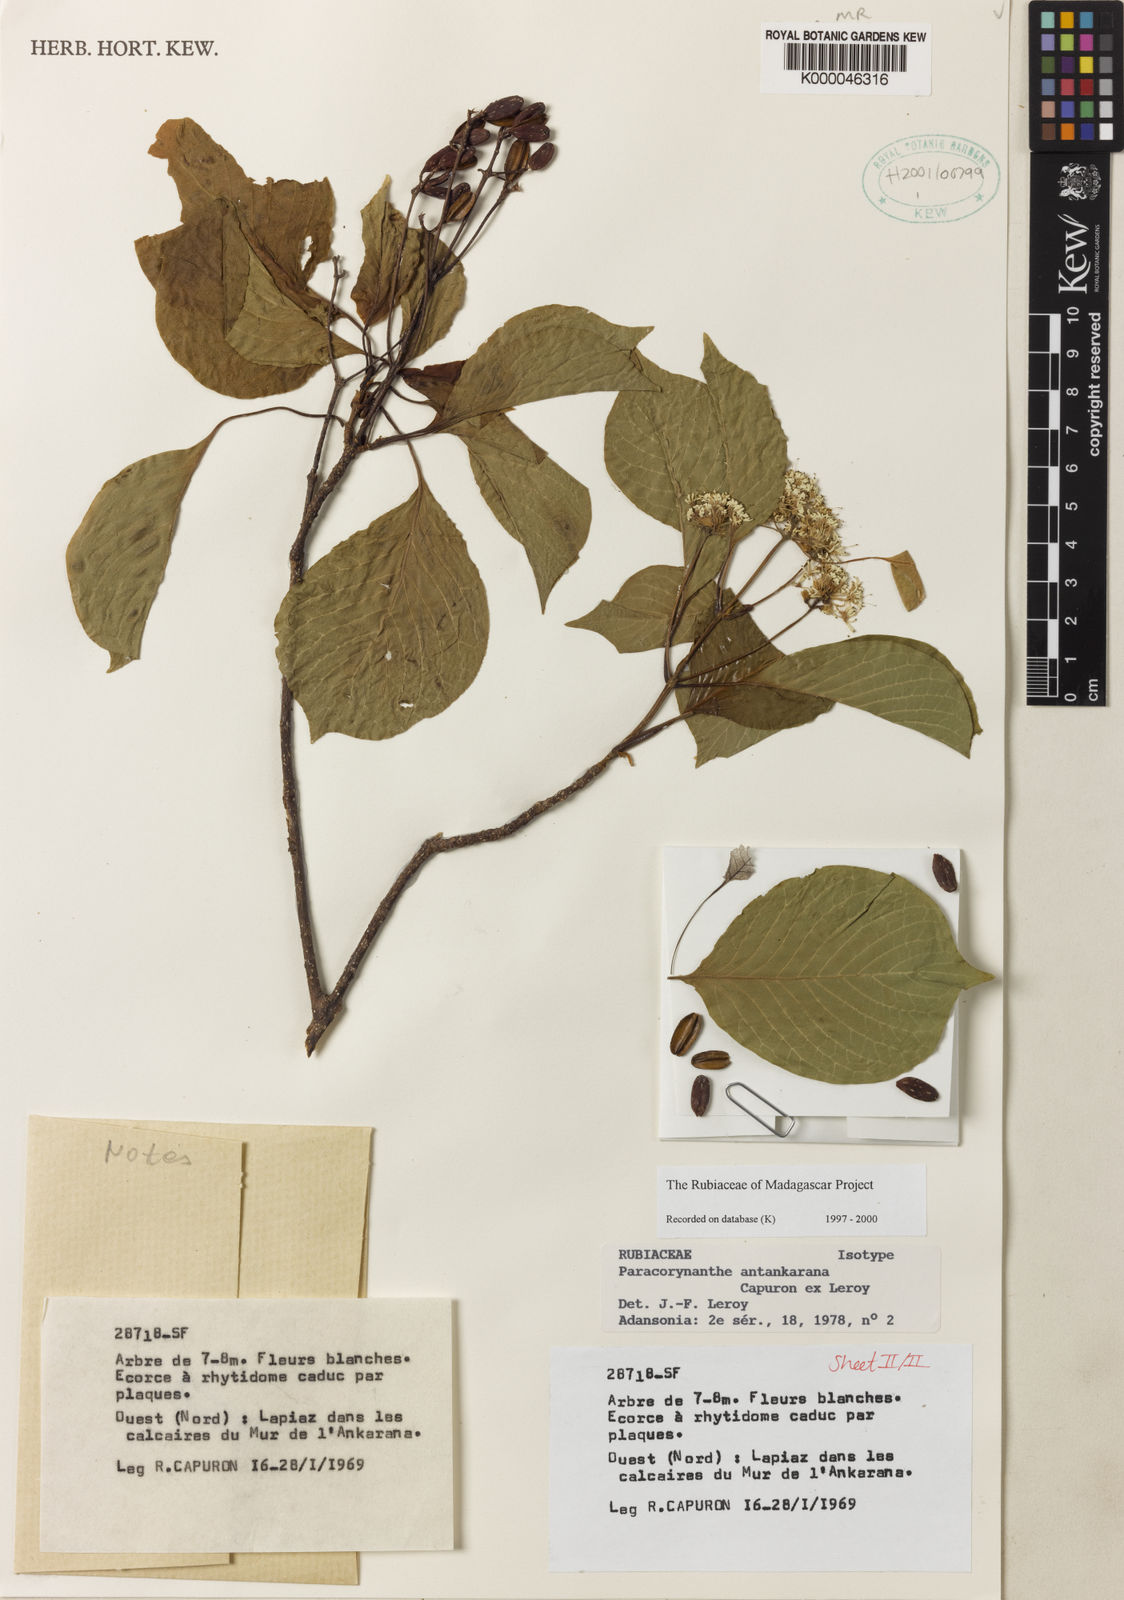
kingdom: Plantae
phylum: Tracheophyta
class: Magnoliopsida
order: Gentianales
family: Rubiaceae
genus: Paracorynanthe
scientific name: Paracorynanthe antankarana
